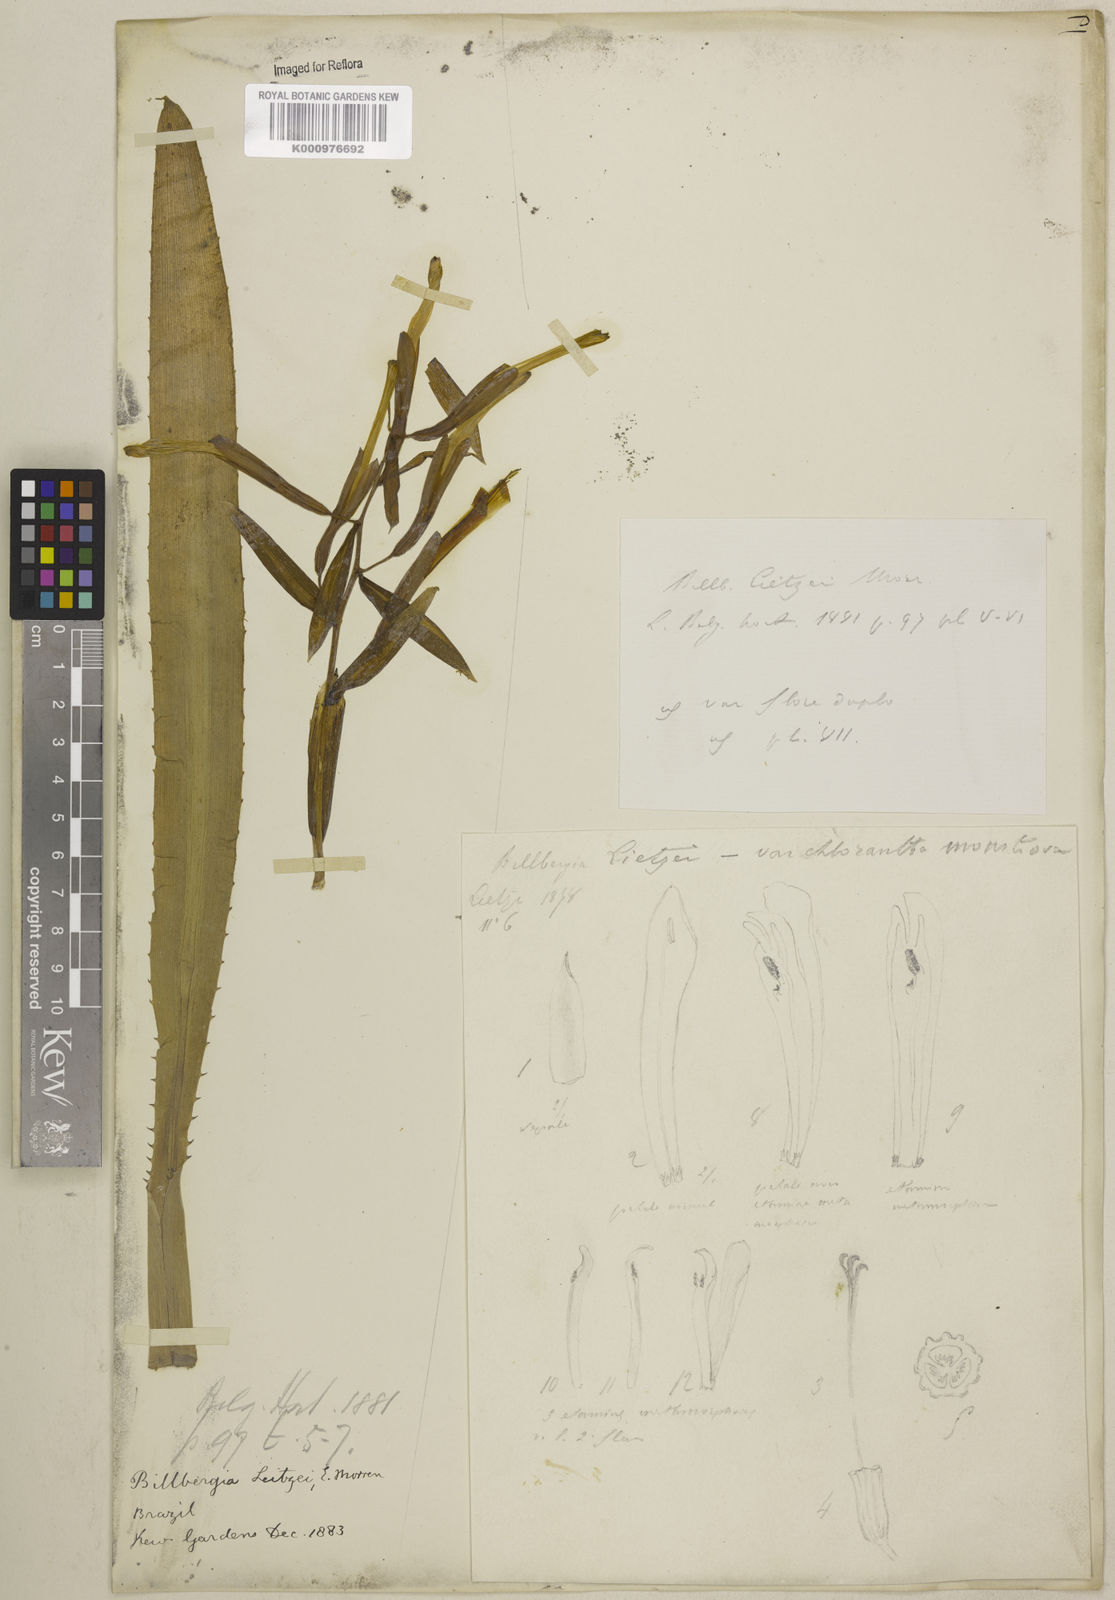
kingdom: Plantae
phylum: Tracheophyta
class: Liliopsida
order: Poales
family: Bromeliaceae
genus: Billbergia
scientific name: Billbergia lietzei
